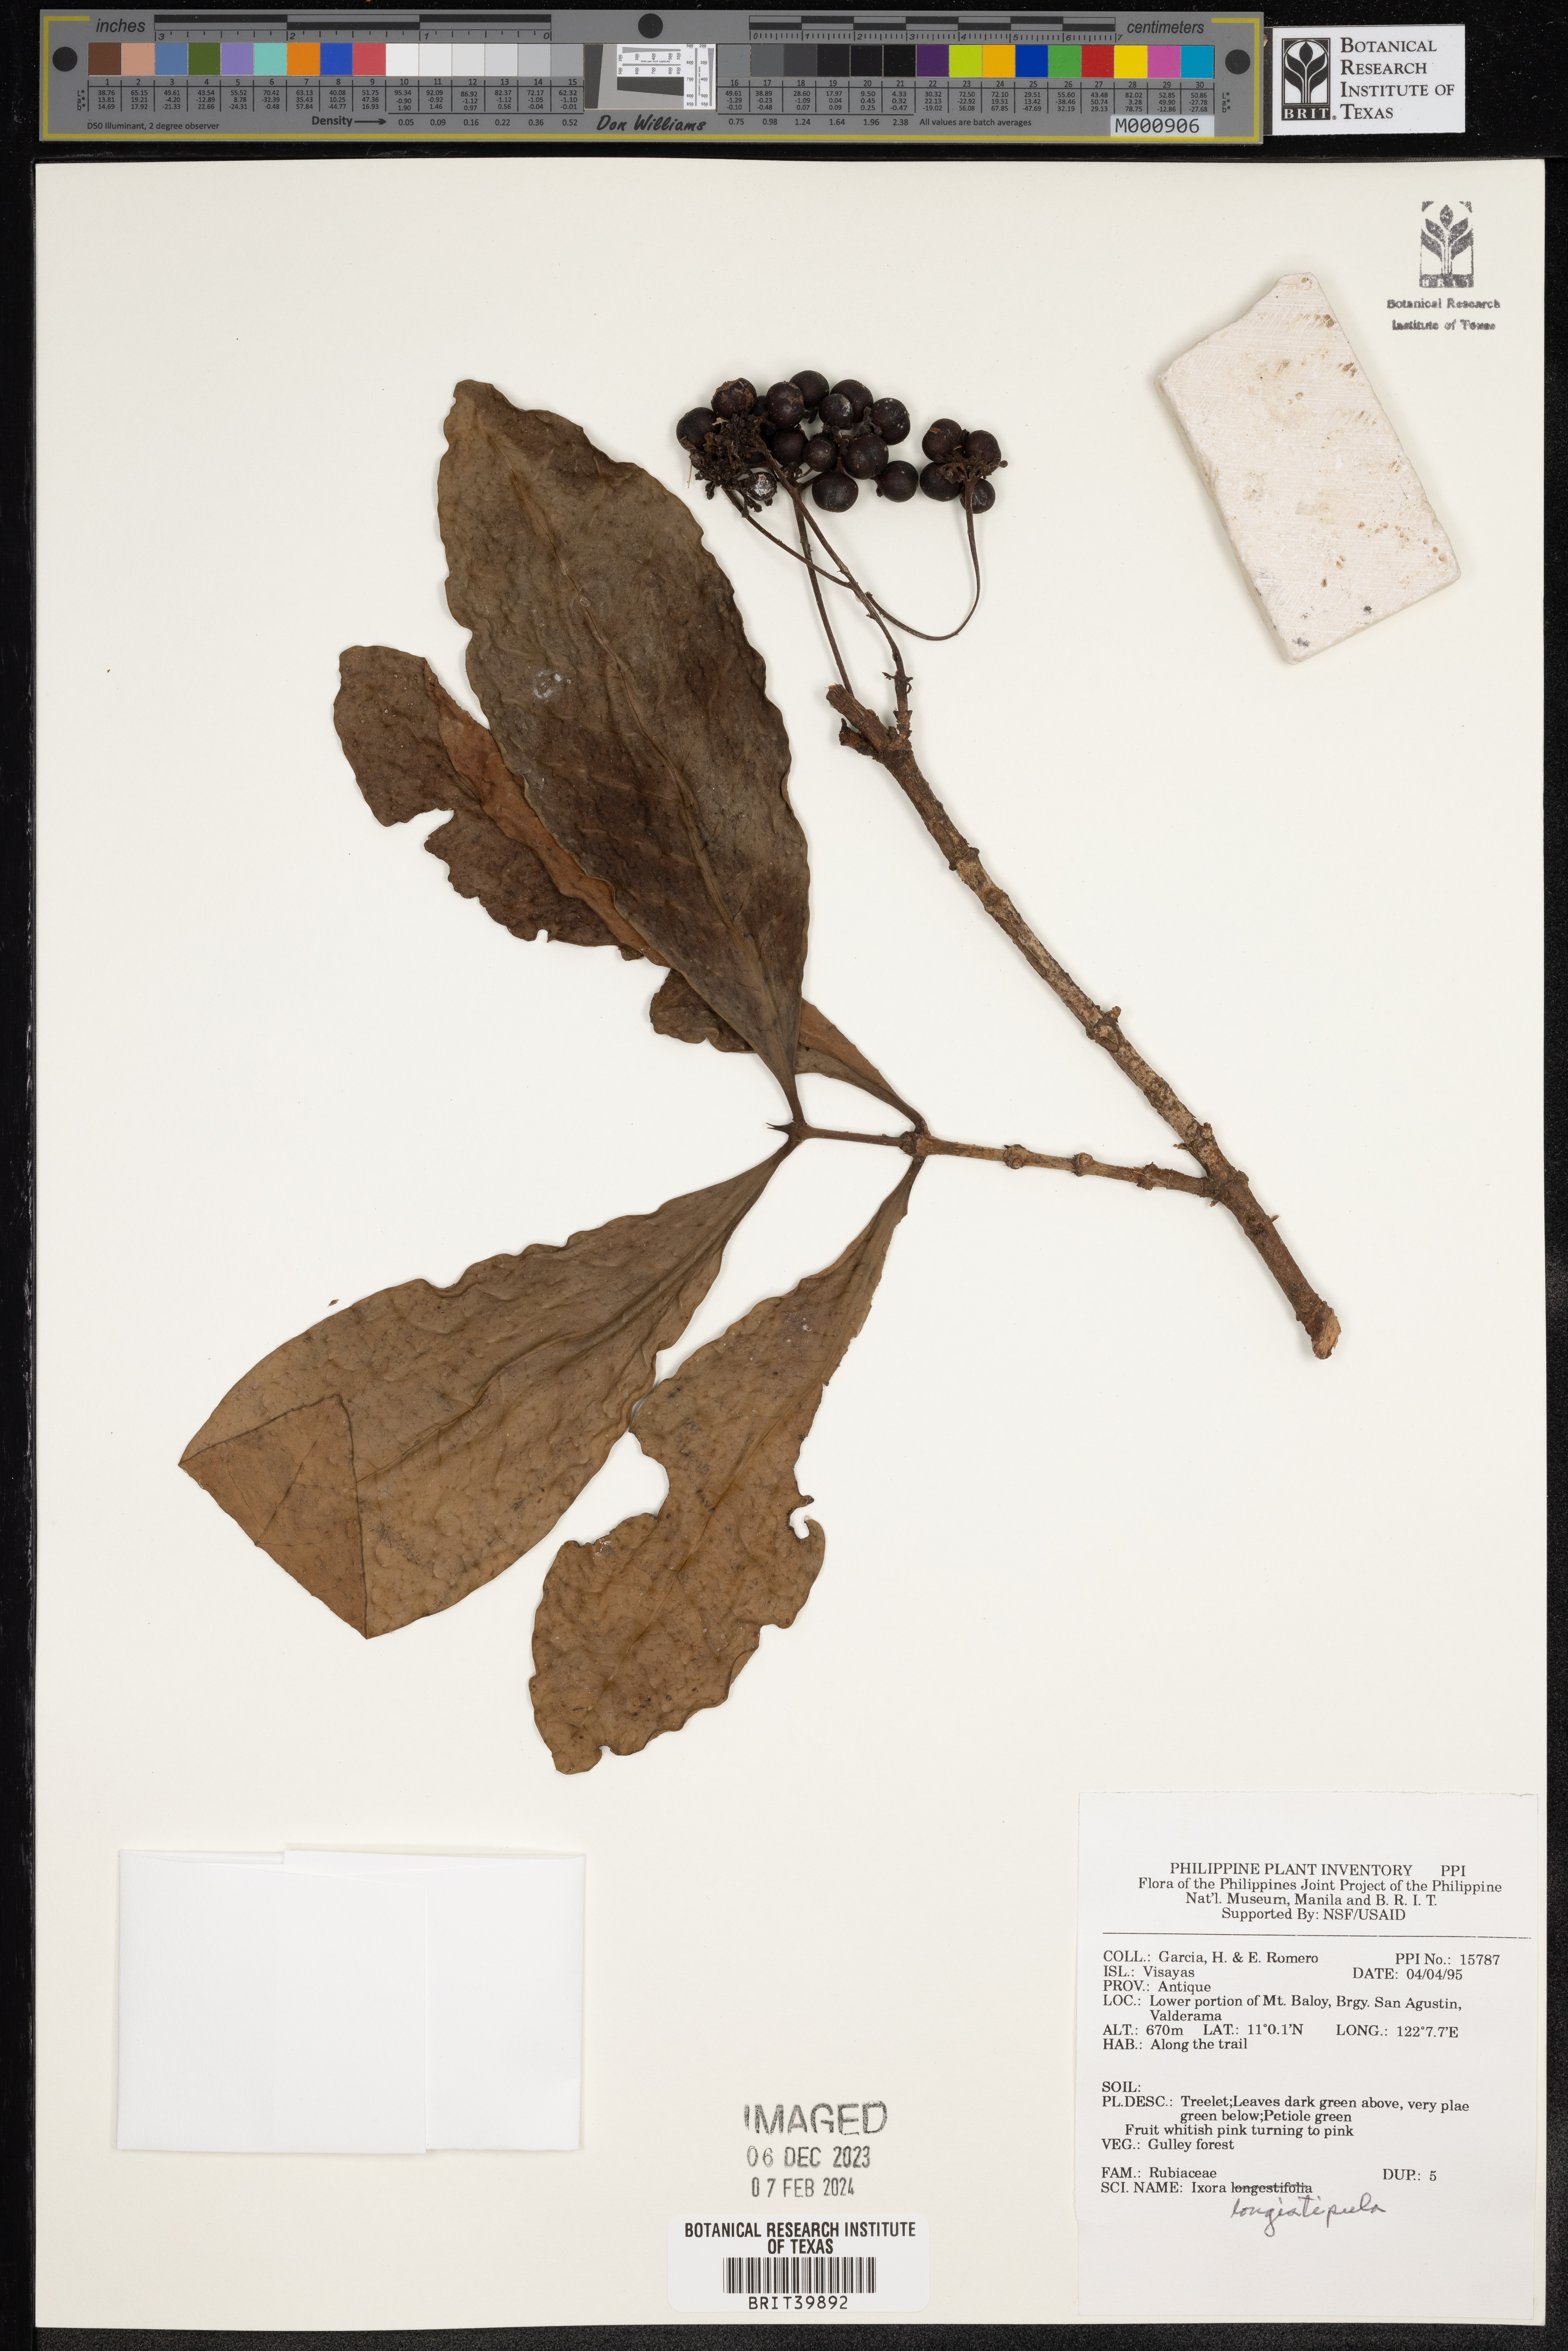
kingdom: Plantae
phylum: Tracheophyta
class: Magnoliopsida
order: Gentianales
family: Rubiaceae
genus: Ixora
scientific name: Ixora longistipula
